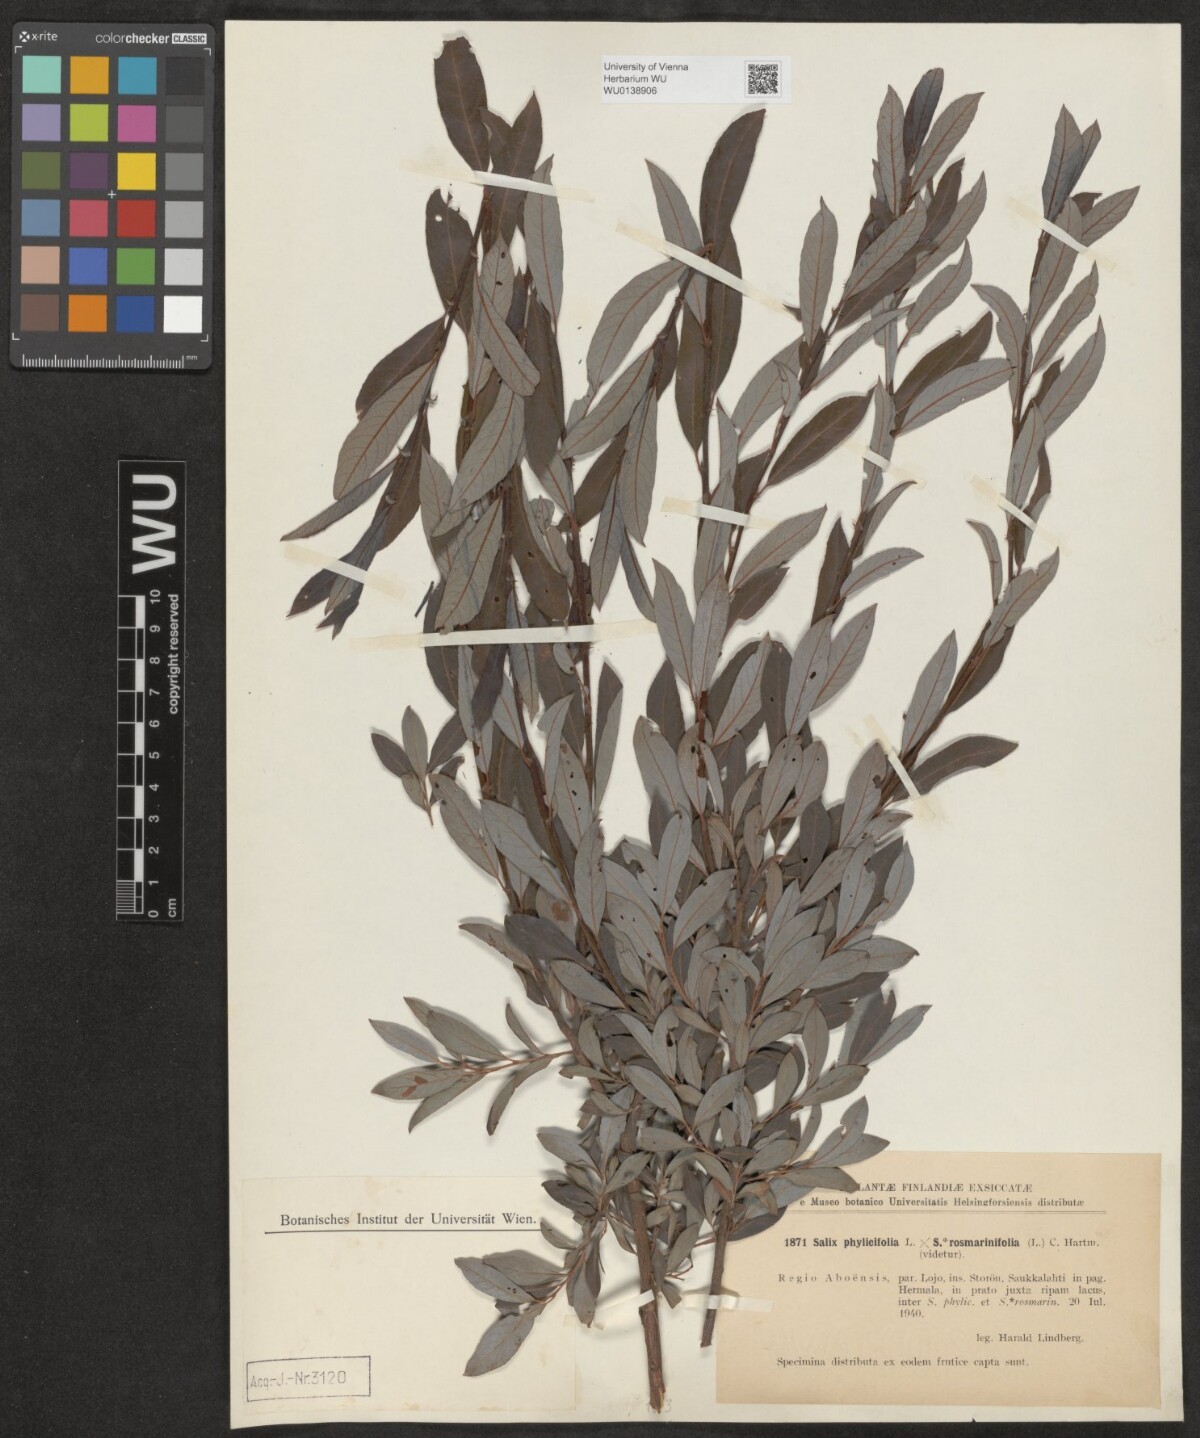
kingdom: Plantae
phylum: Tracheophyta
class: Magnoliopsida
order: Malpighiales
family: Salicaceae
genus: Salix
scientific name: Salix phylicifolia
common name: Tea-leaved willow
